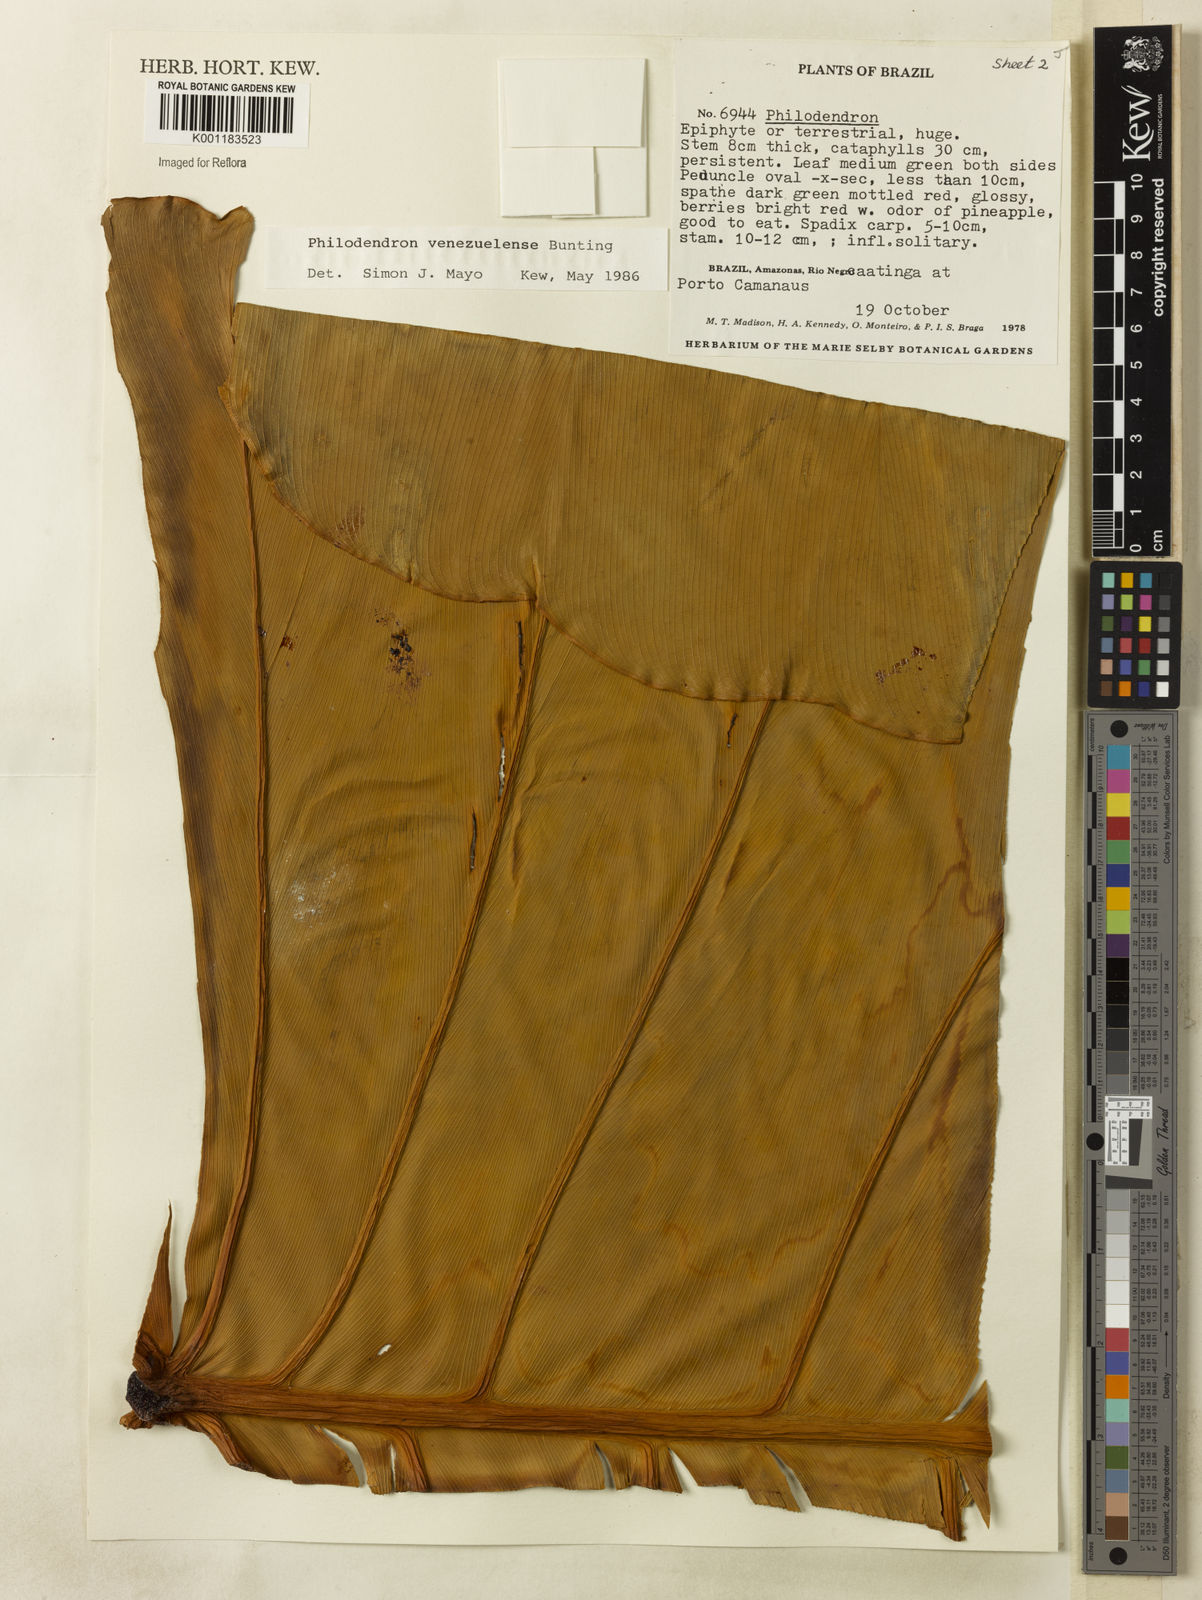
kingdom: Plantae
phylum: Tracheophyta
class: Liliopsida
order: Alismatales
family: Araceae
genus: Thaumatophyllum
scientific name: Thaumatophyllum venezuelense
